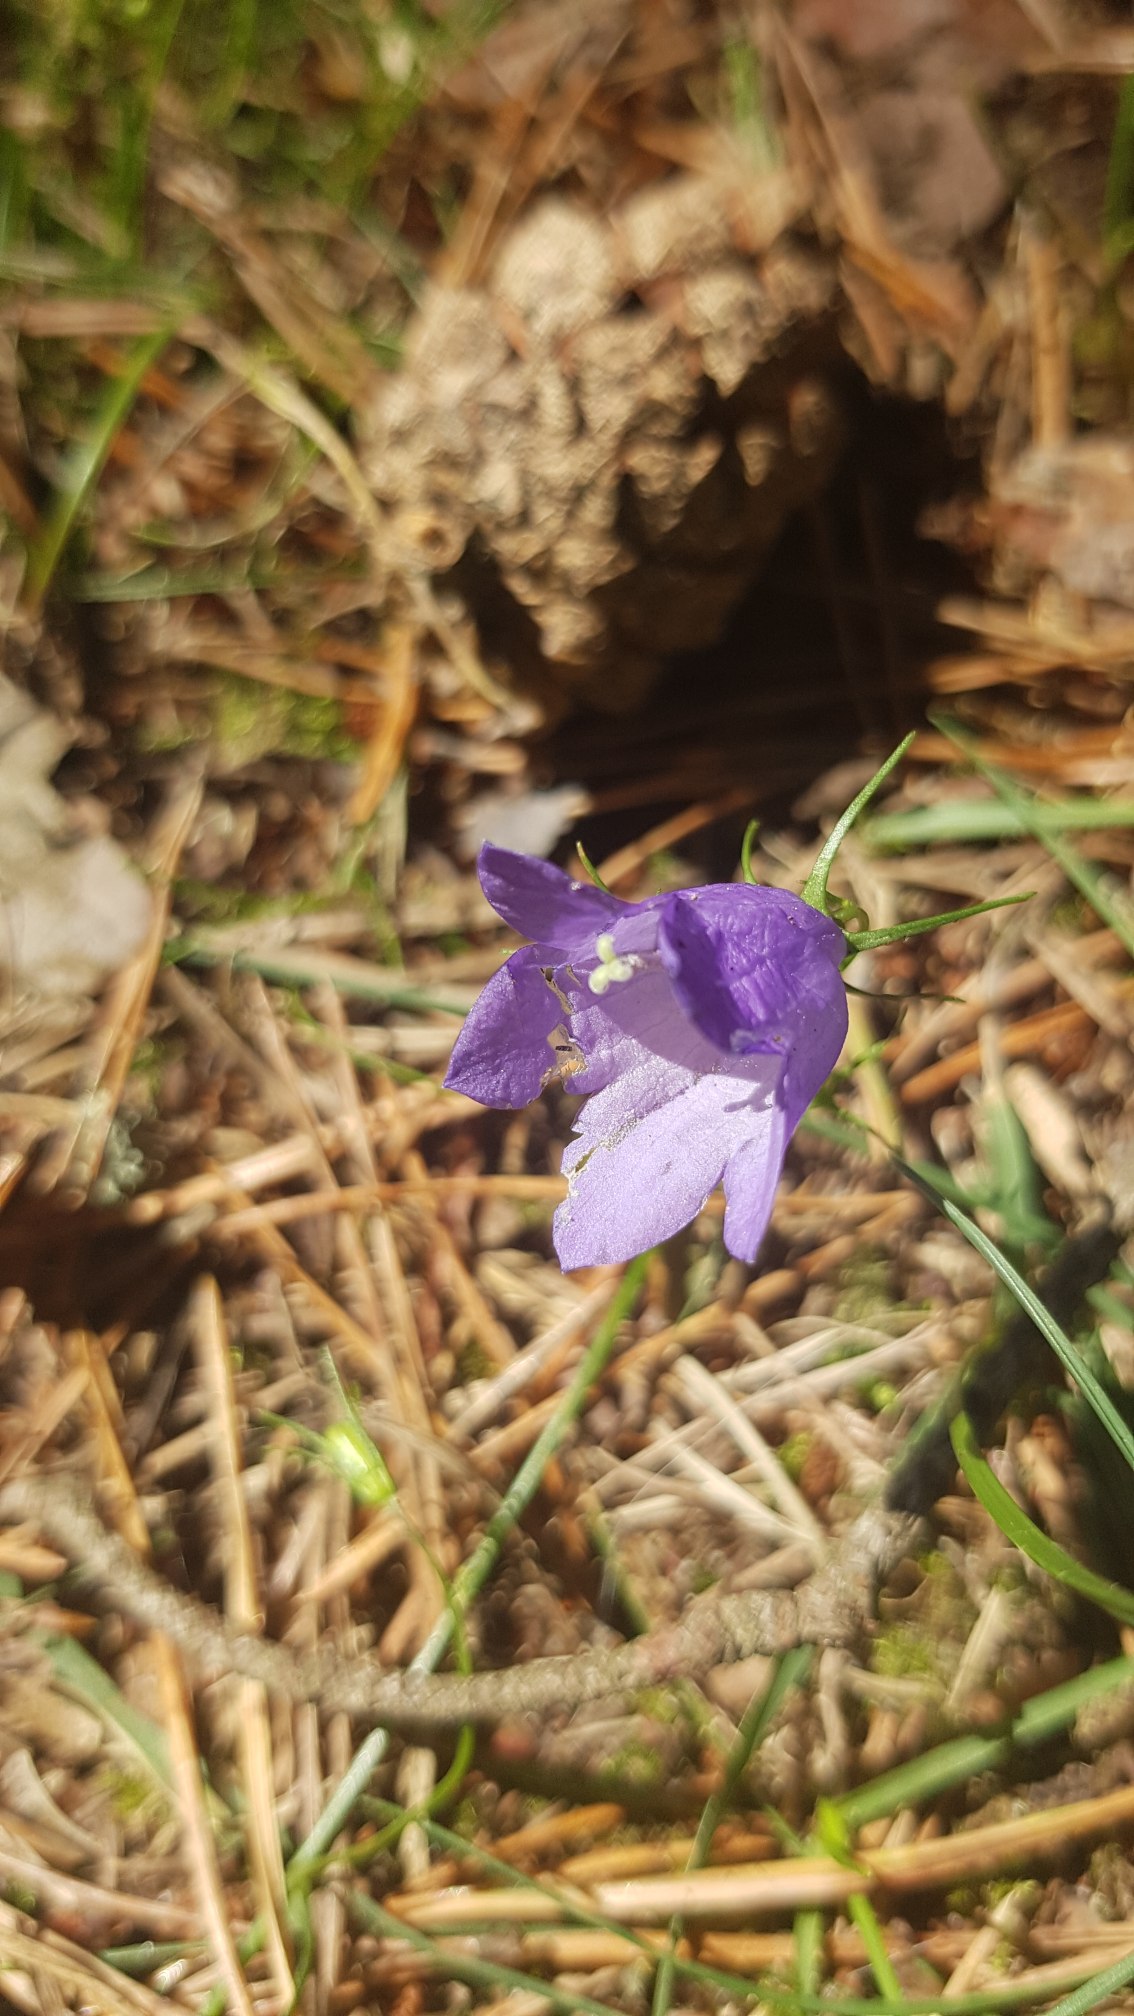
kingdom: Plantae
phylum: Tracheophyta
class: Magnoliopsida
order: Asterales
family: Campanulaceae
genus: Campanula
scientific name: Campanula rotundifolia
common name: Liden klokke
